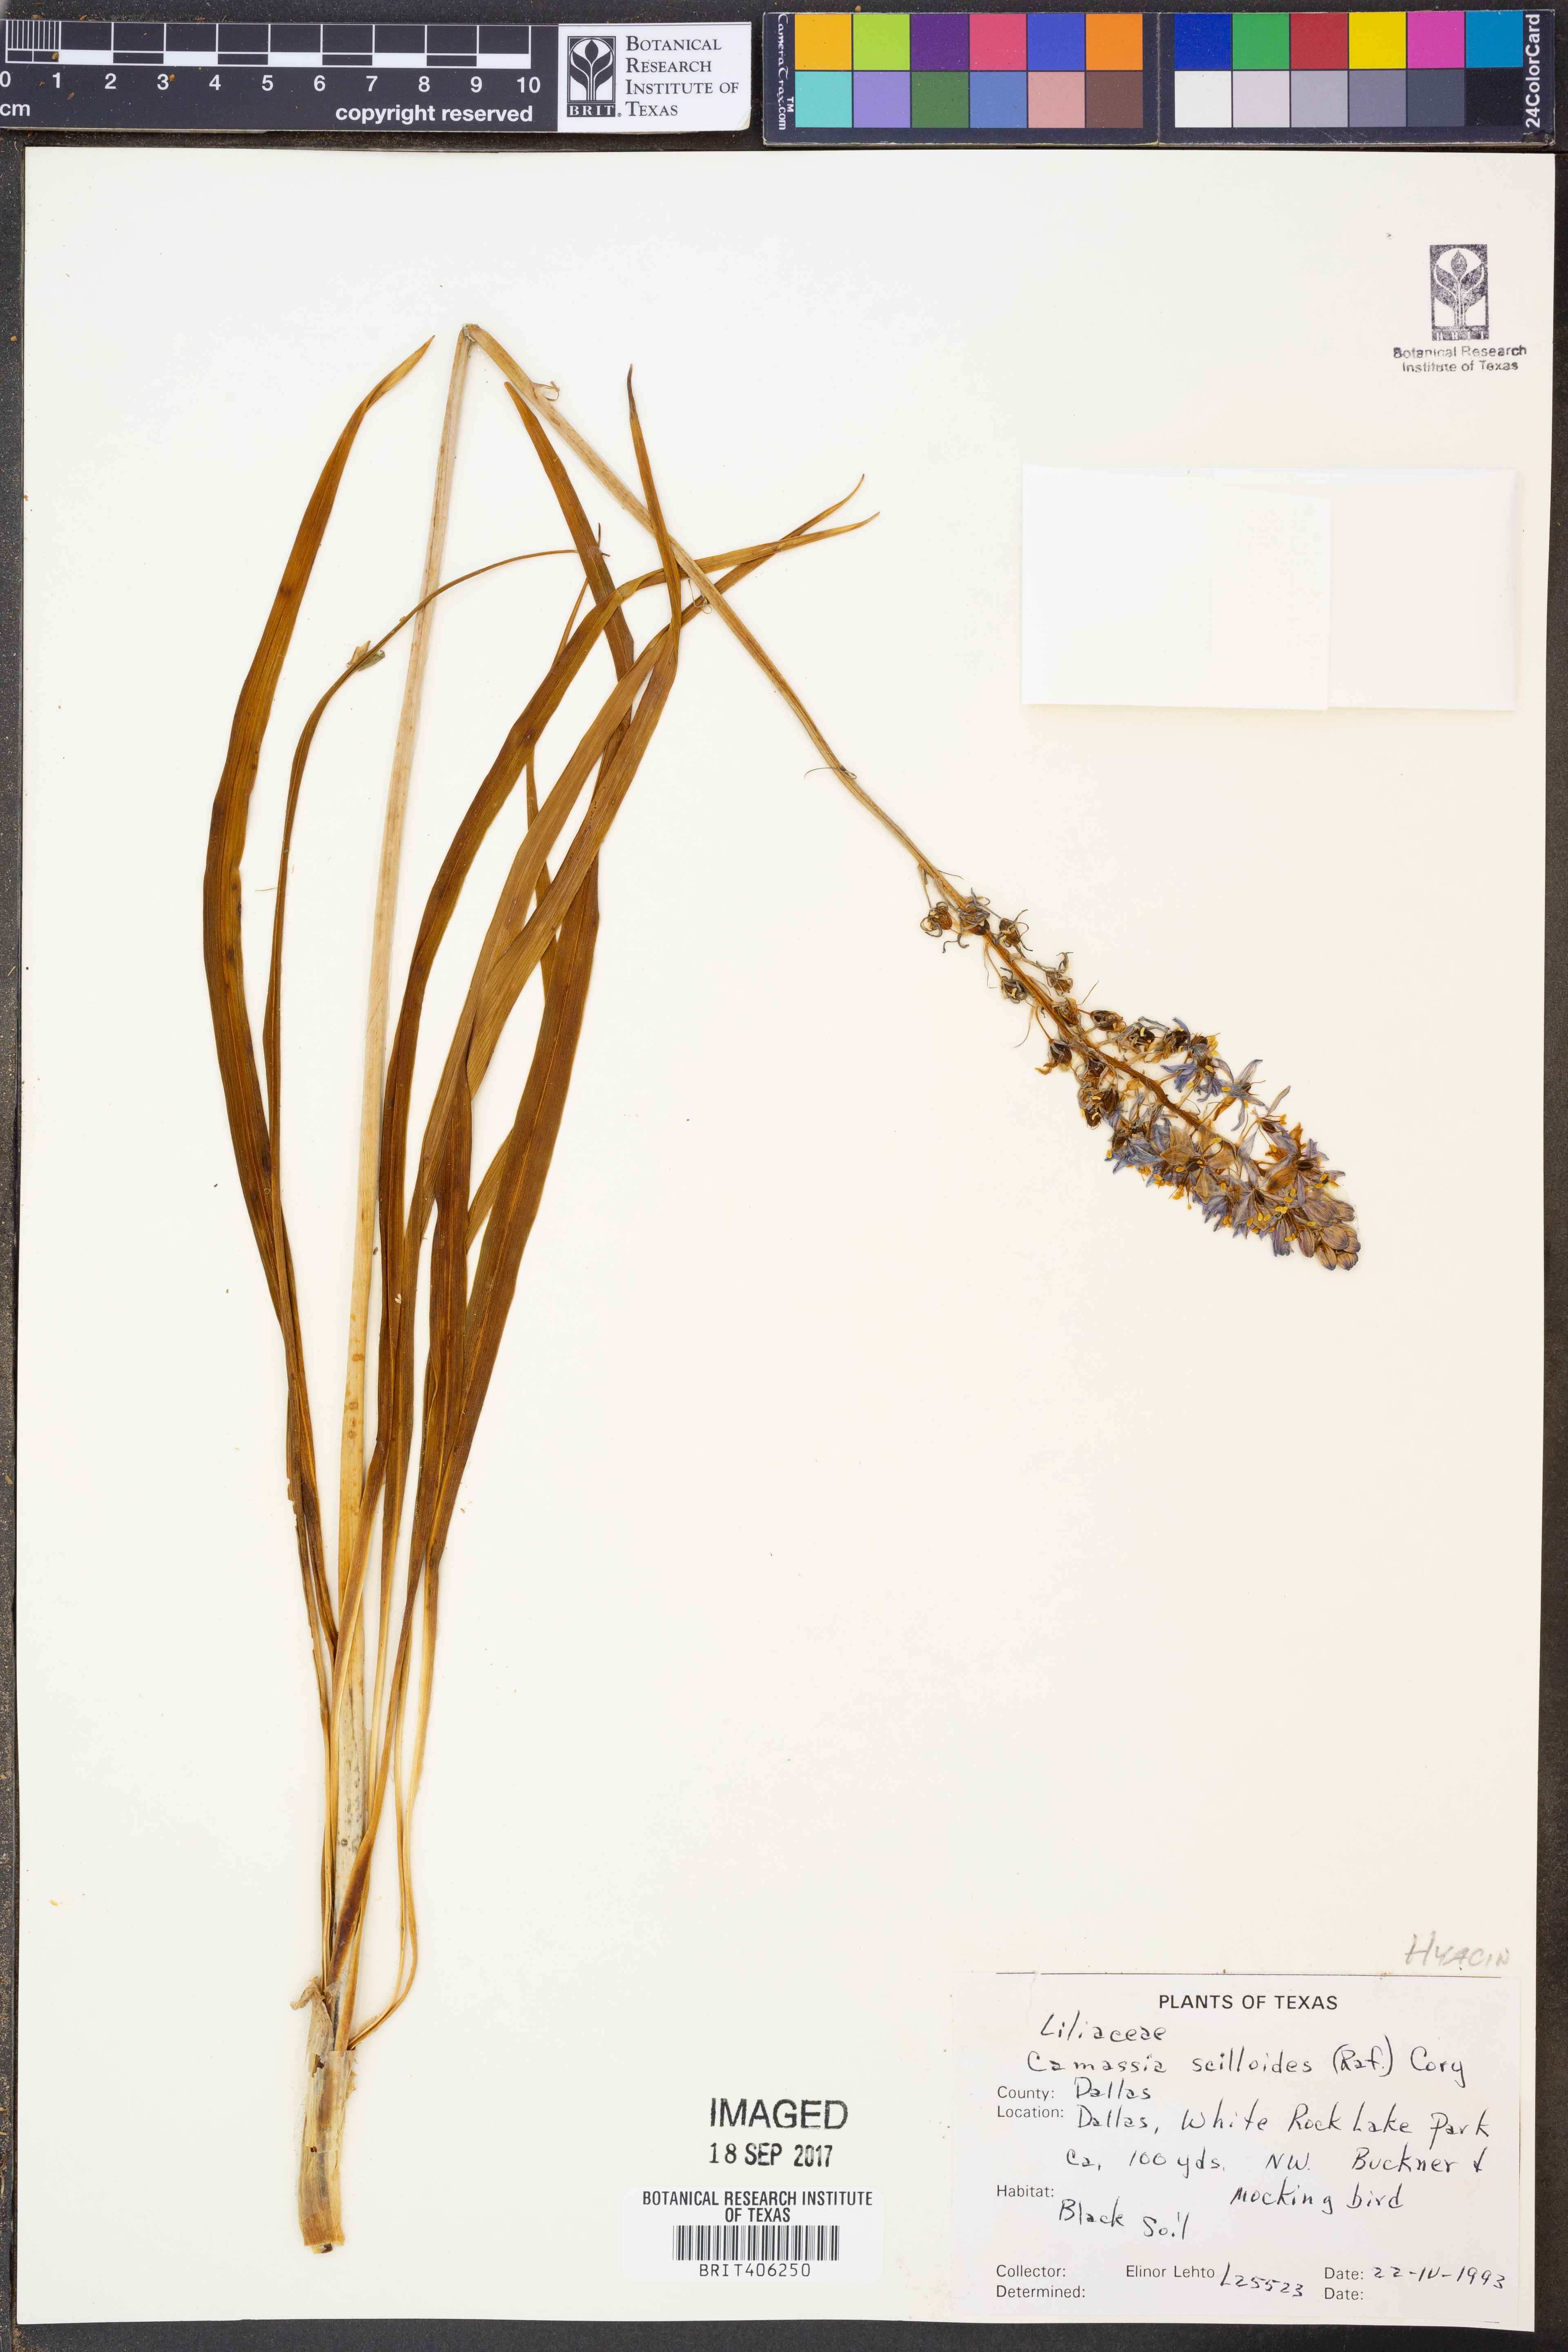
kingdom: Plantae
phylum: Tracheophyta
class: Liliopsida
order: Asparagales
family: Asparagaceae
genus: Camassia
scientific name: Camassia scilloides
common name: Wild hyacinth
